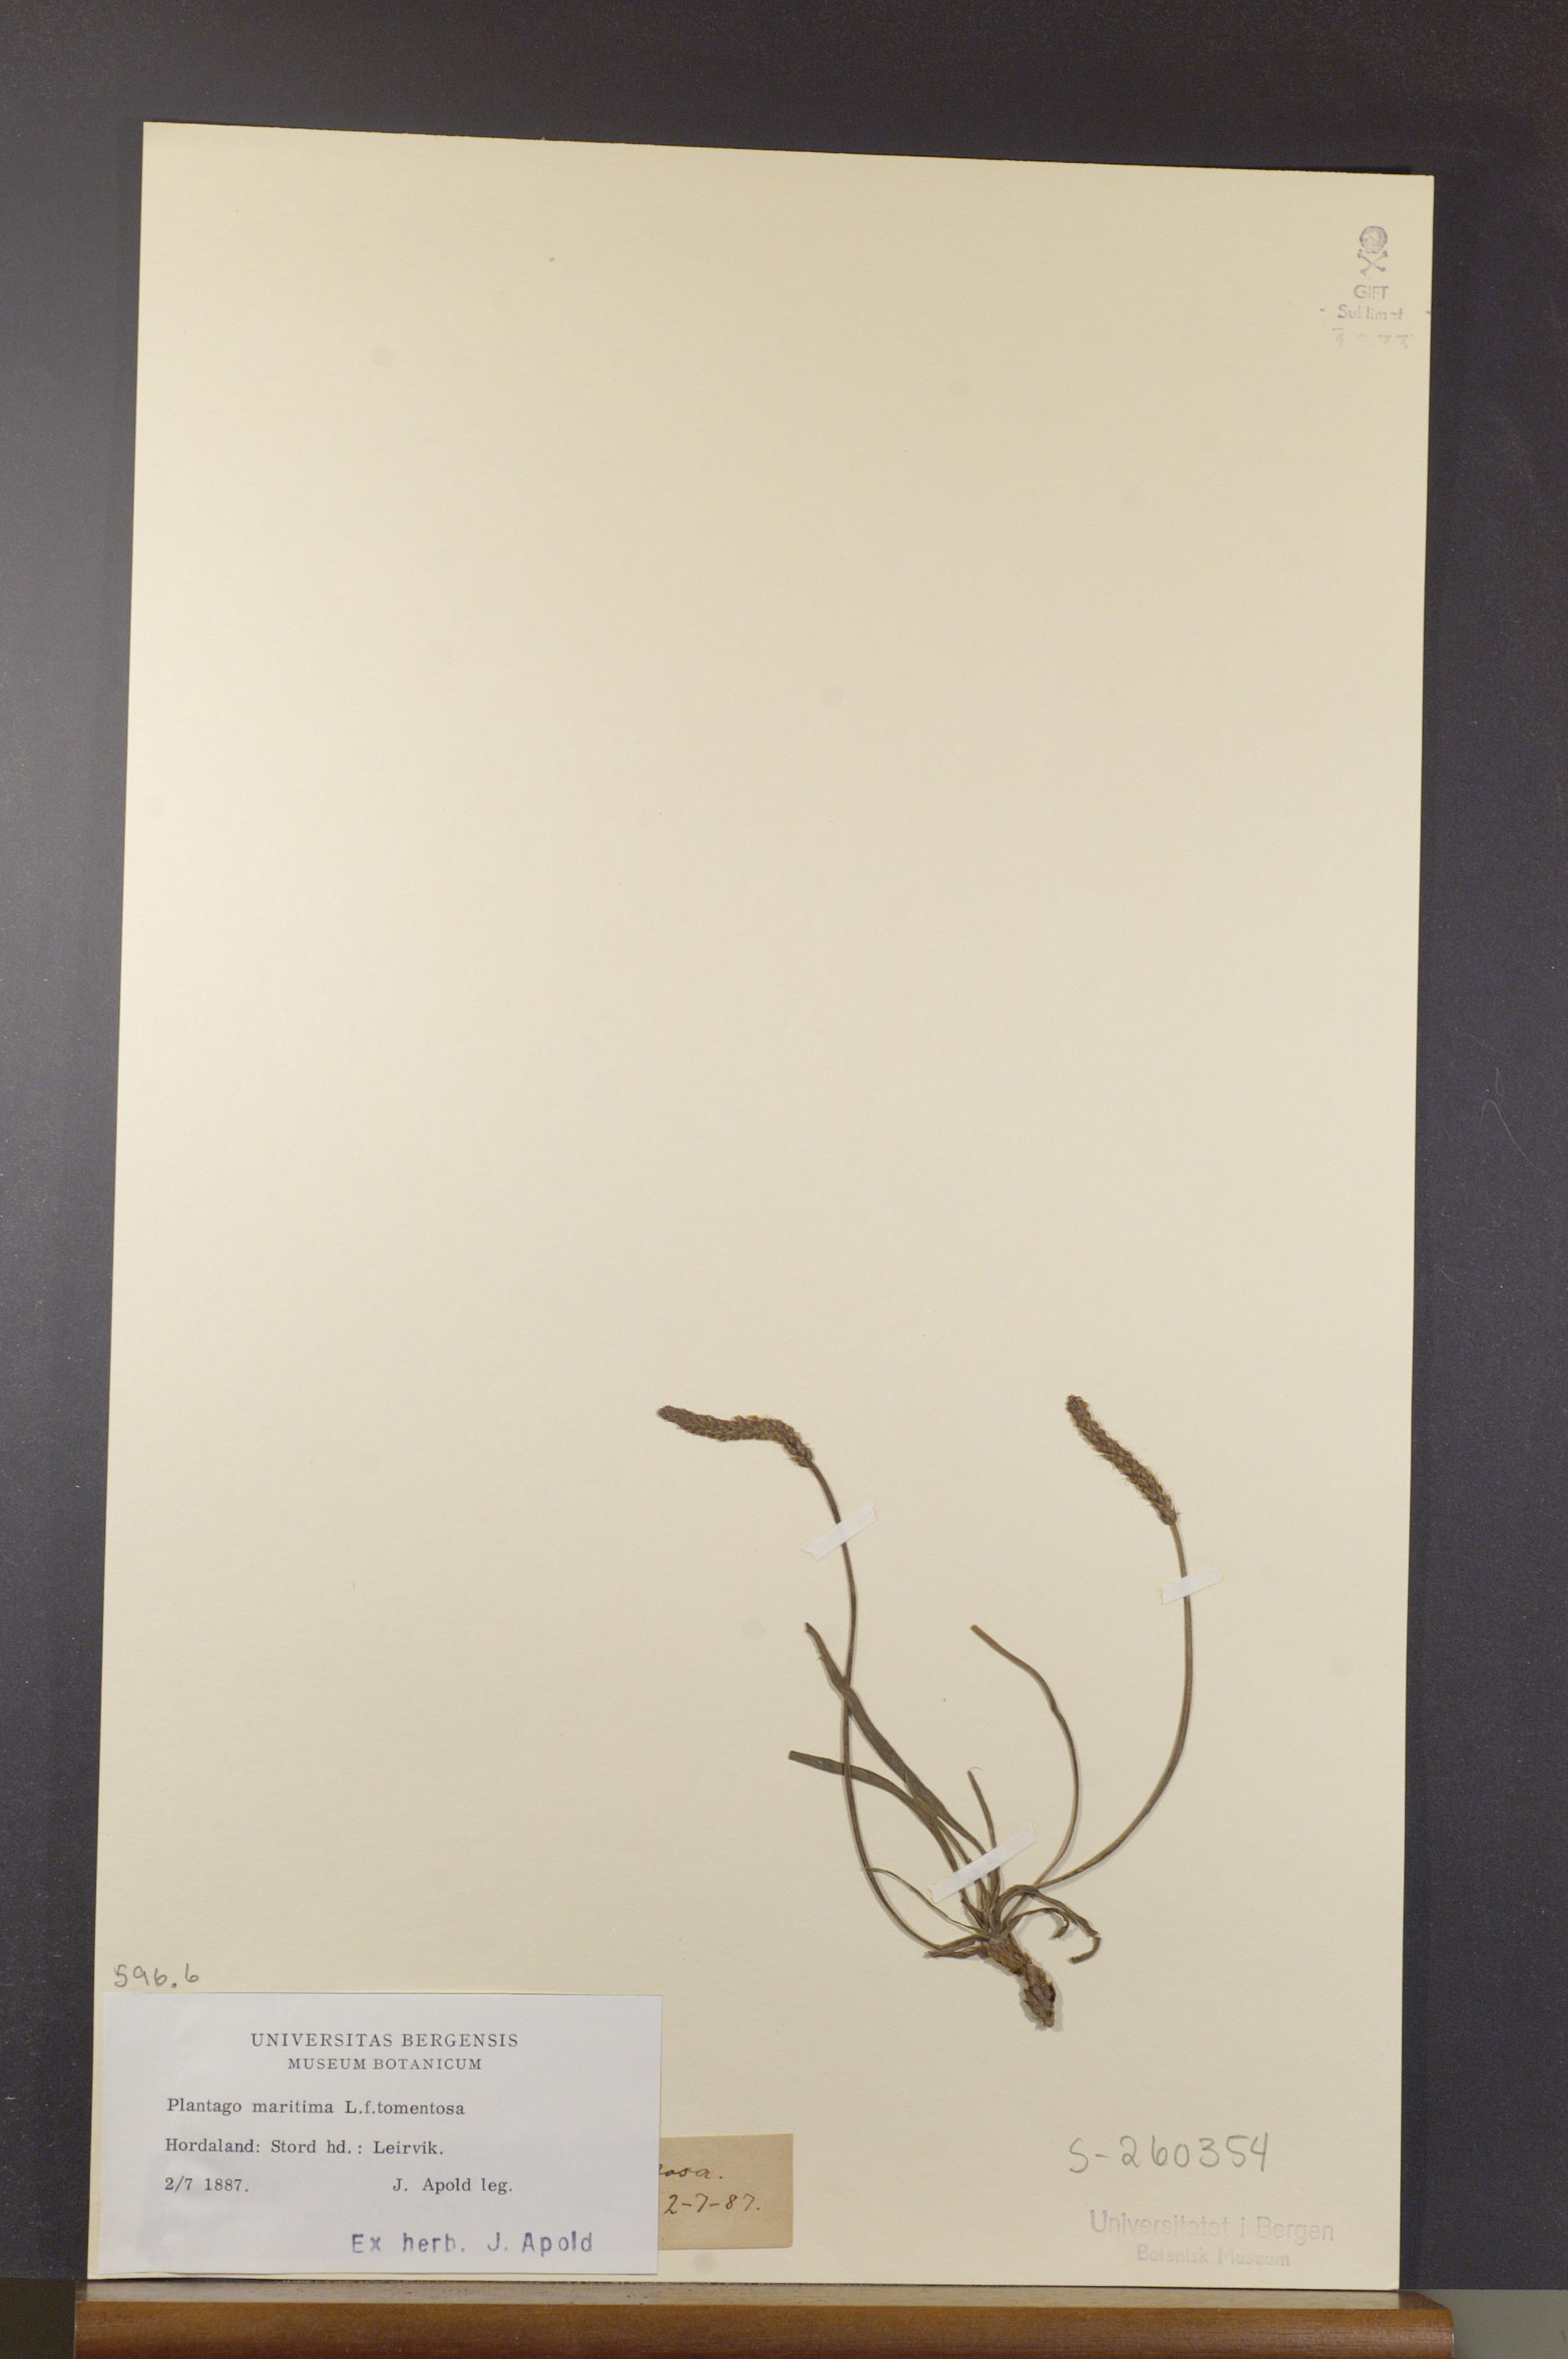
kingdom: Plantae
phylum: Tracheophyta
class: Magnoliopsida
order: Lamiales
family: Plantaginaceae
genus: Plantago
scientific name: Plantago maritima
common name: Sea plantain
